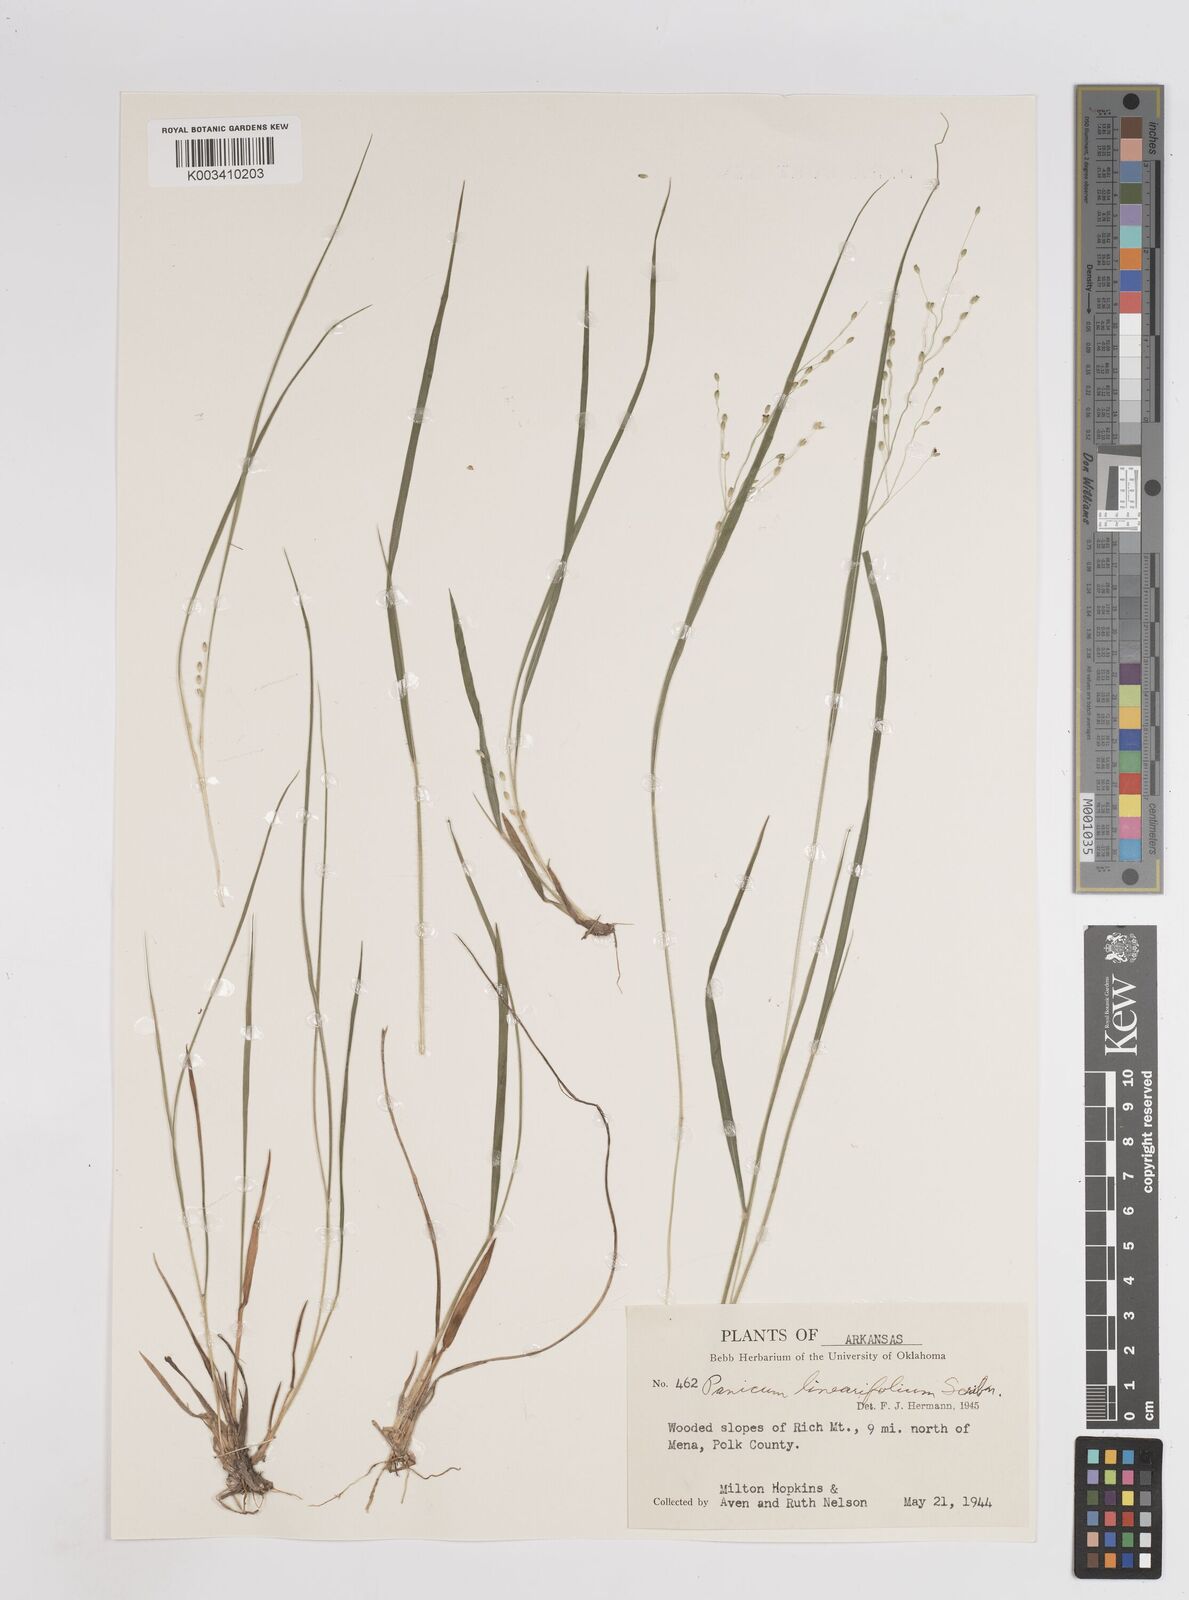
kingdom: Plantae
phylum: Tracheophyta
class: Liliopsida
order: Poales
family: Poaceae
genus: Dichanthelium
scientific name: Dichanthelium linearifolium
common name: Linear-leaved panicgrass
